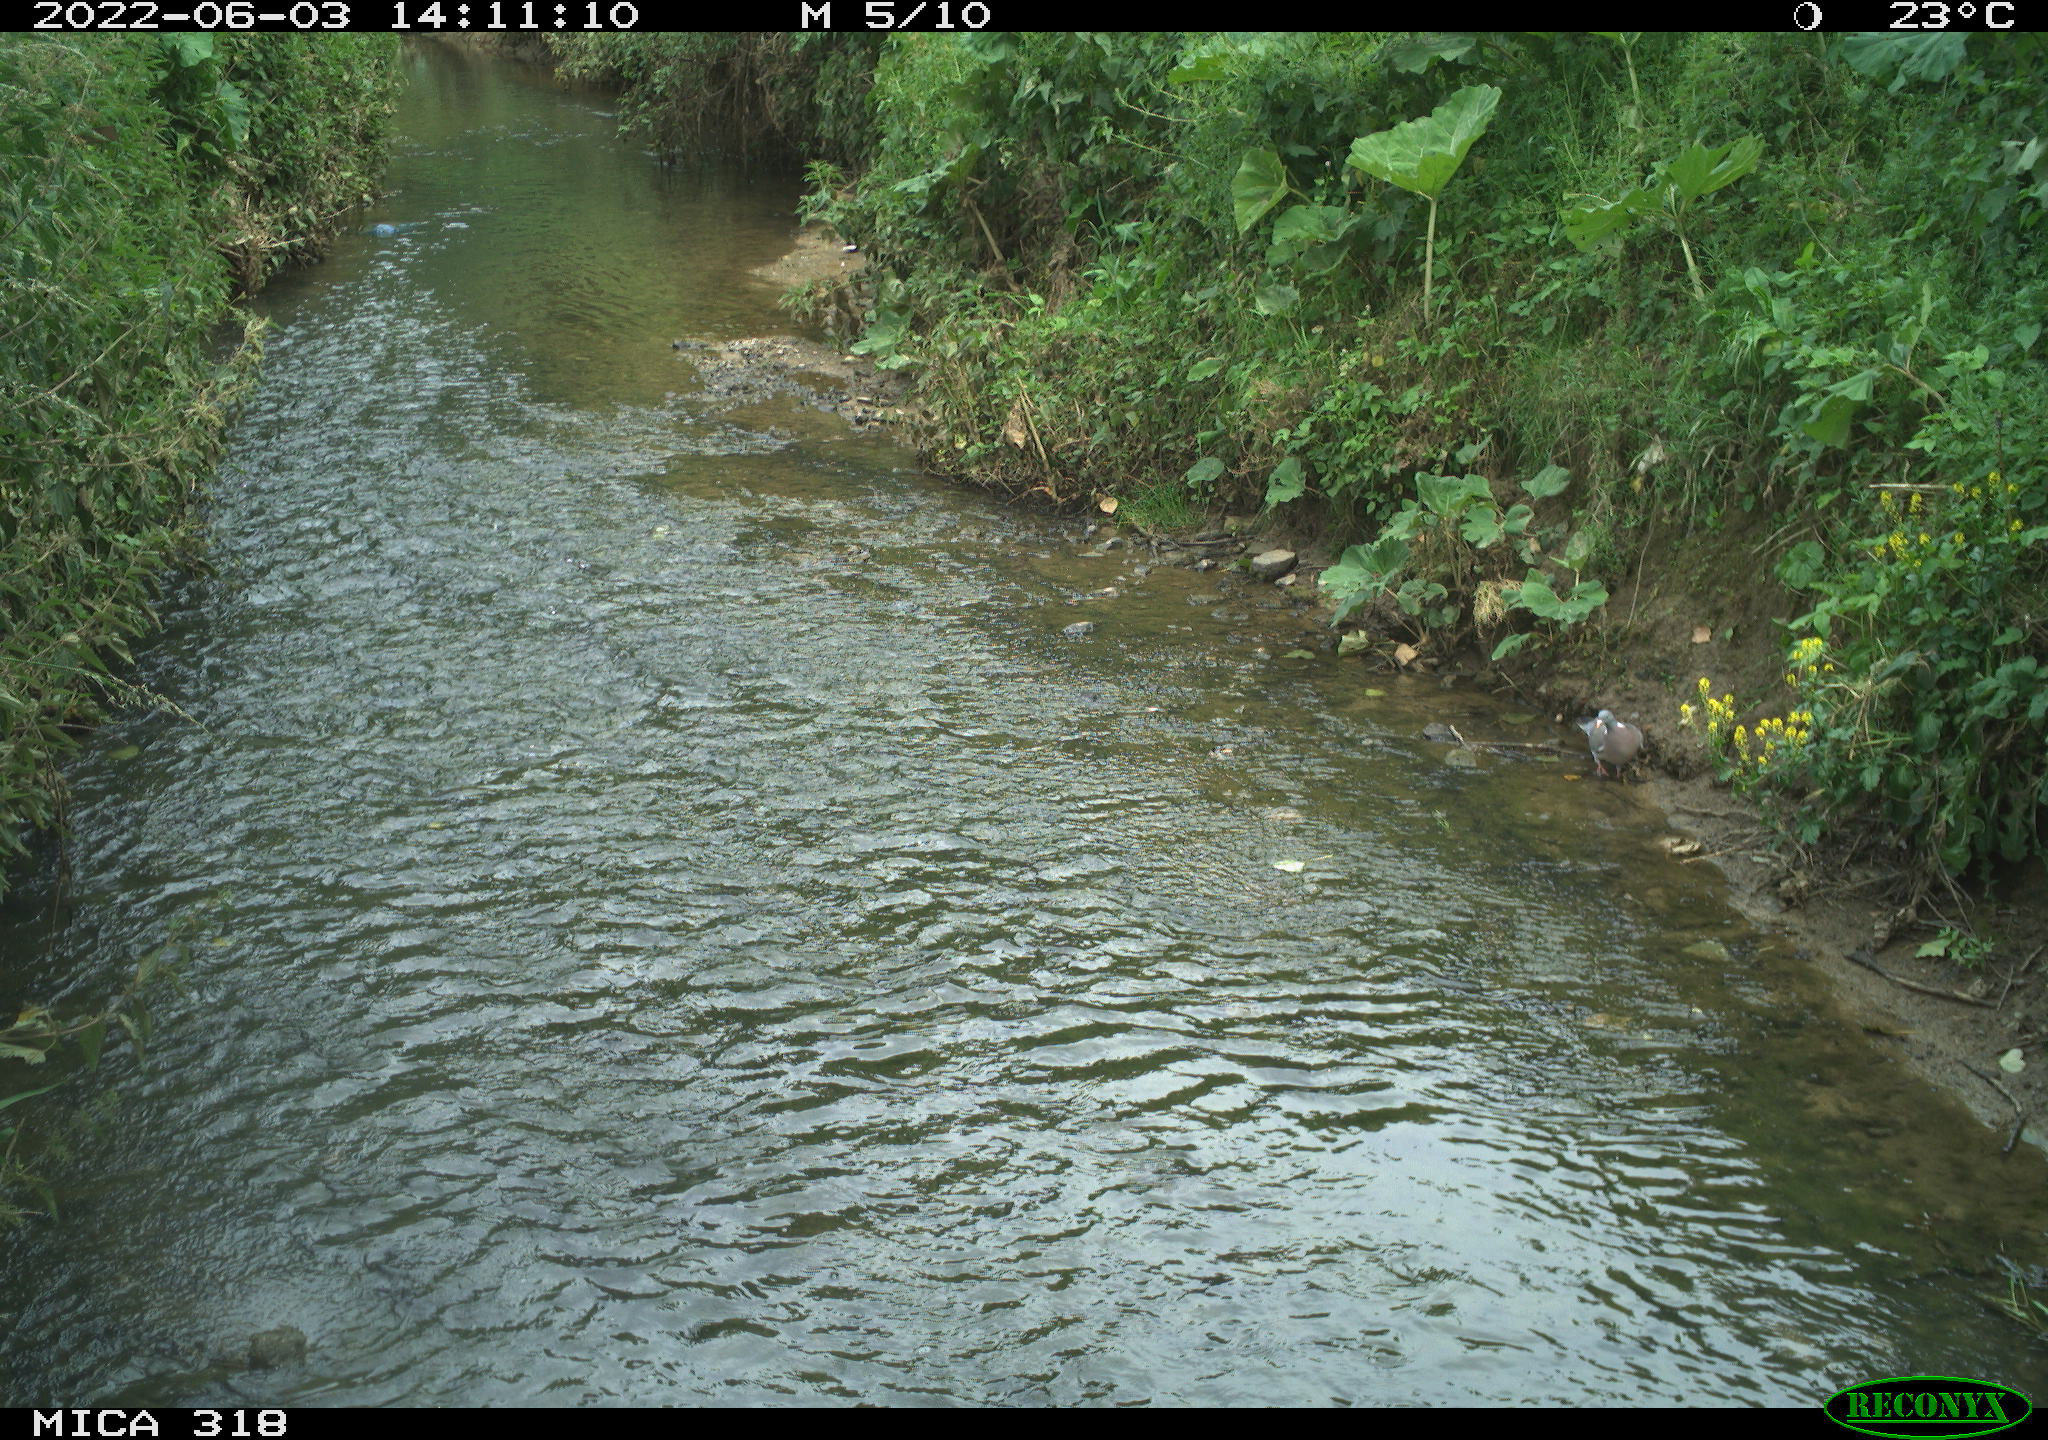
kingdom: Animalia
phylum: Chordata
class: Aves
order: Columbiformes
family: Columbidae
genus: Columba
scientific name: Columba palumbus
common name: Common wood pigeon
